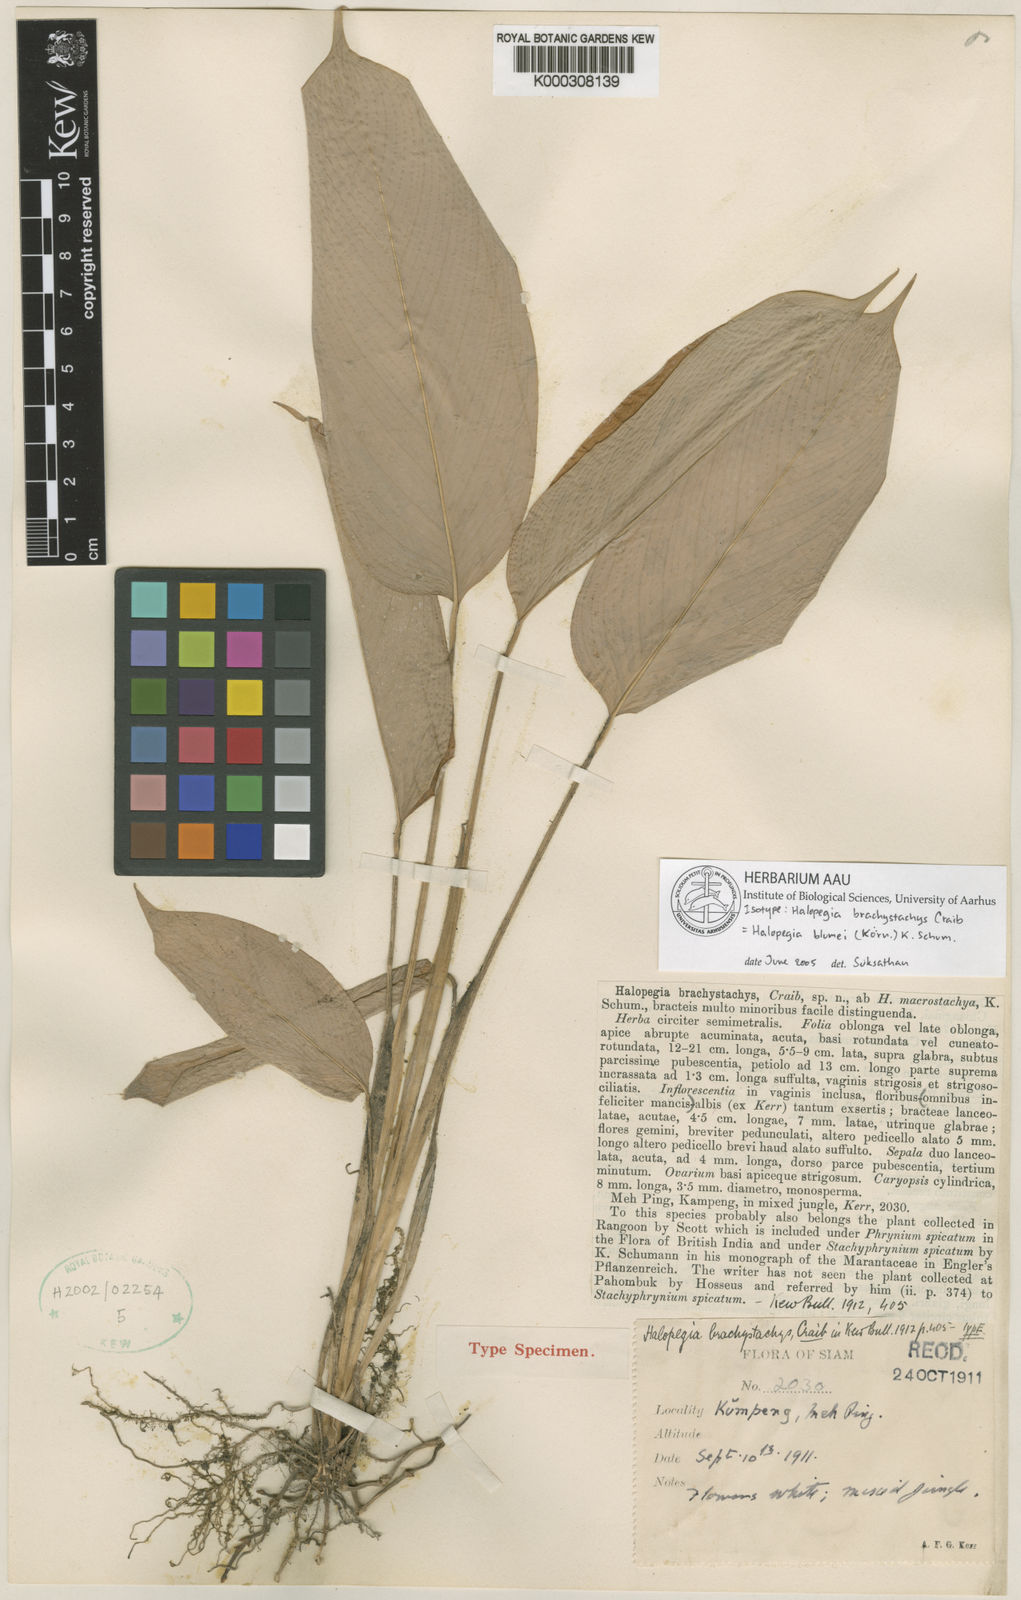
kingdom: Plantae
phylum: Tracheophyta
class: Liliopsida
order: Zingiberales
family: Marantaceae
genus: Halopegia
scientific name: Halopegia
